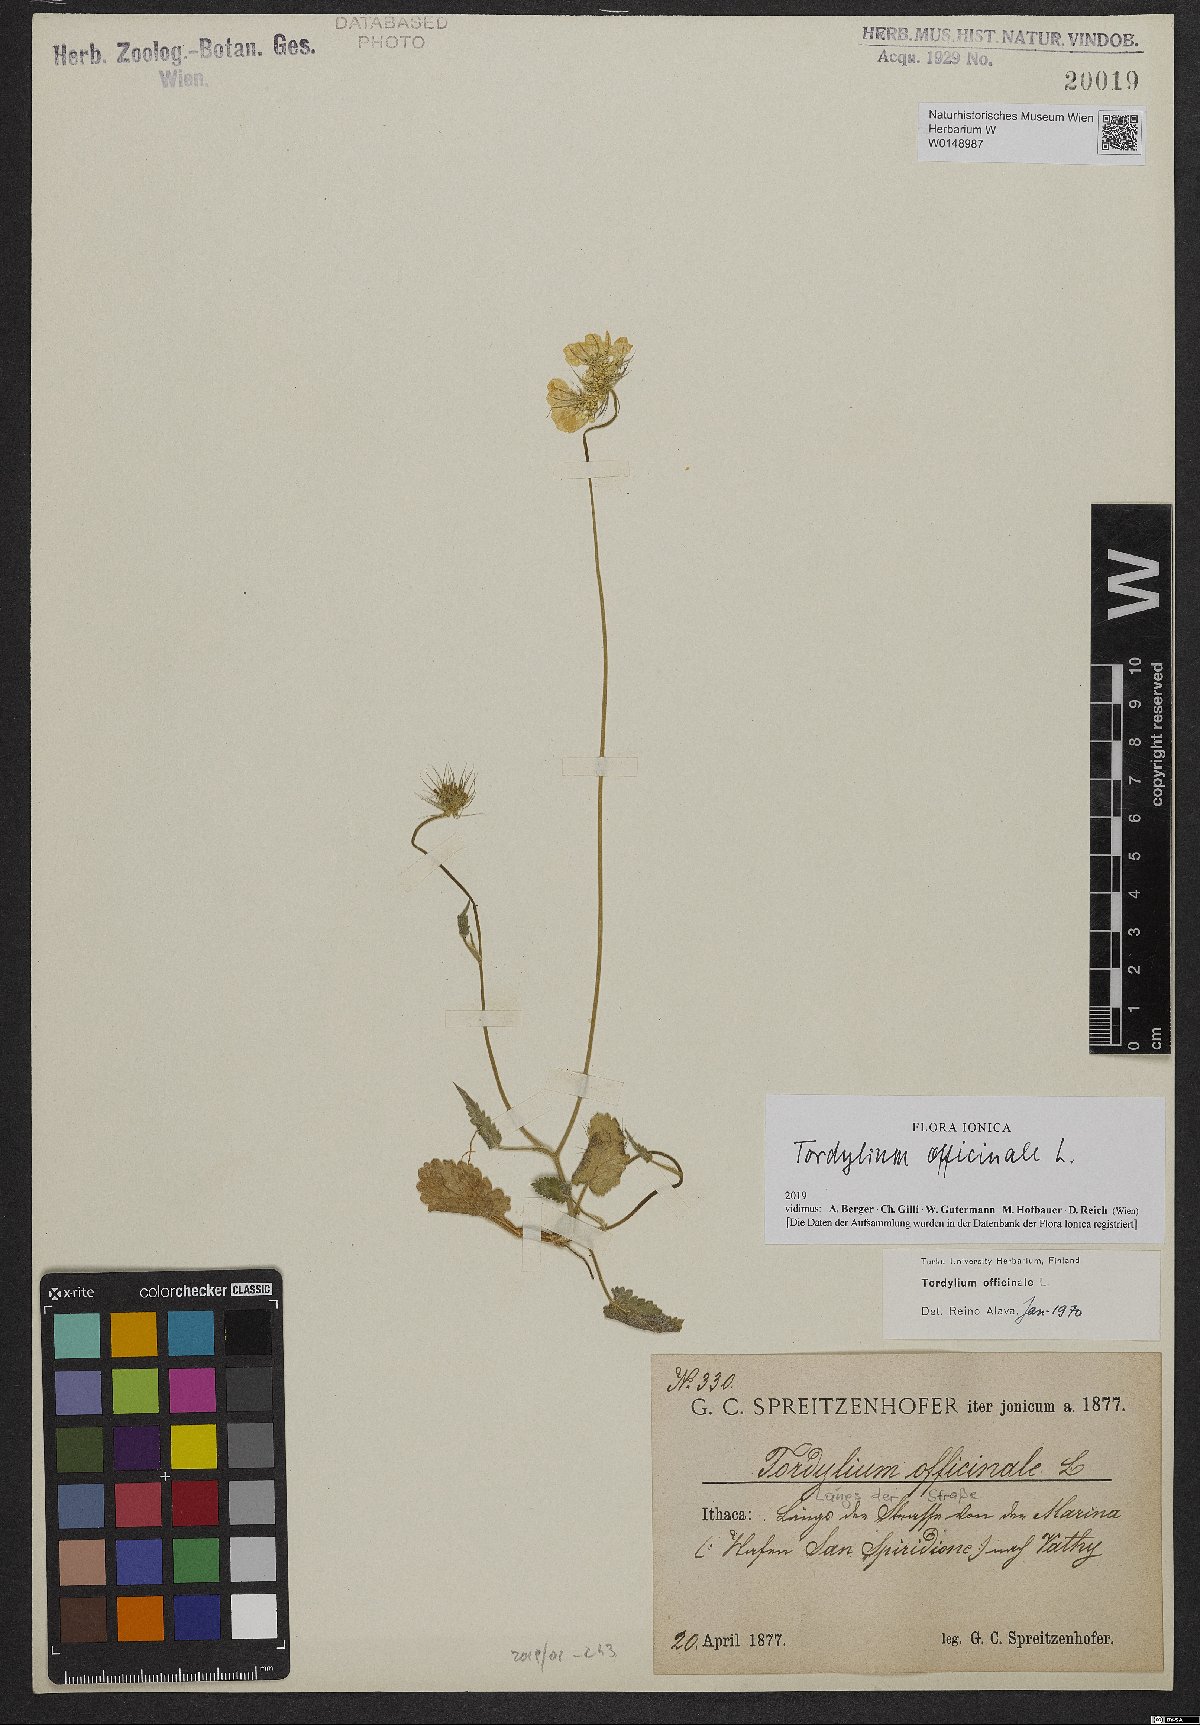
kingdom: Plantae
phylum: Tracheophyta
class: Magnoliopsida
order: Apiales
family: Apiaceae
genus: Tordylium
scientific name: Tordylium officinale
